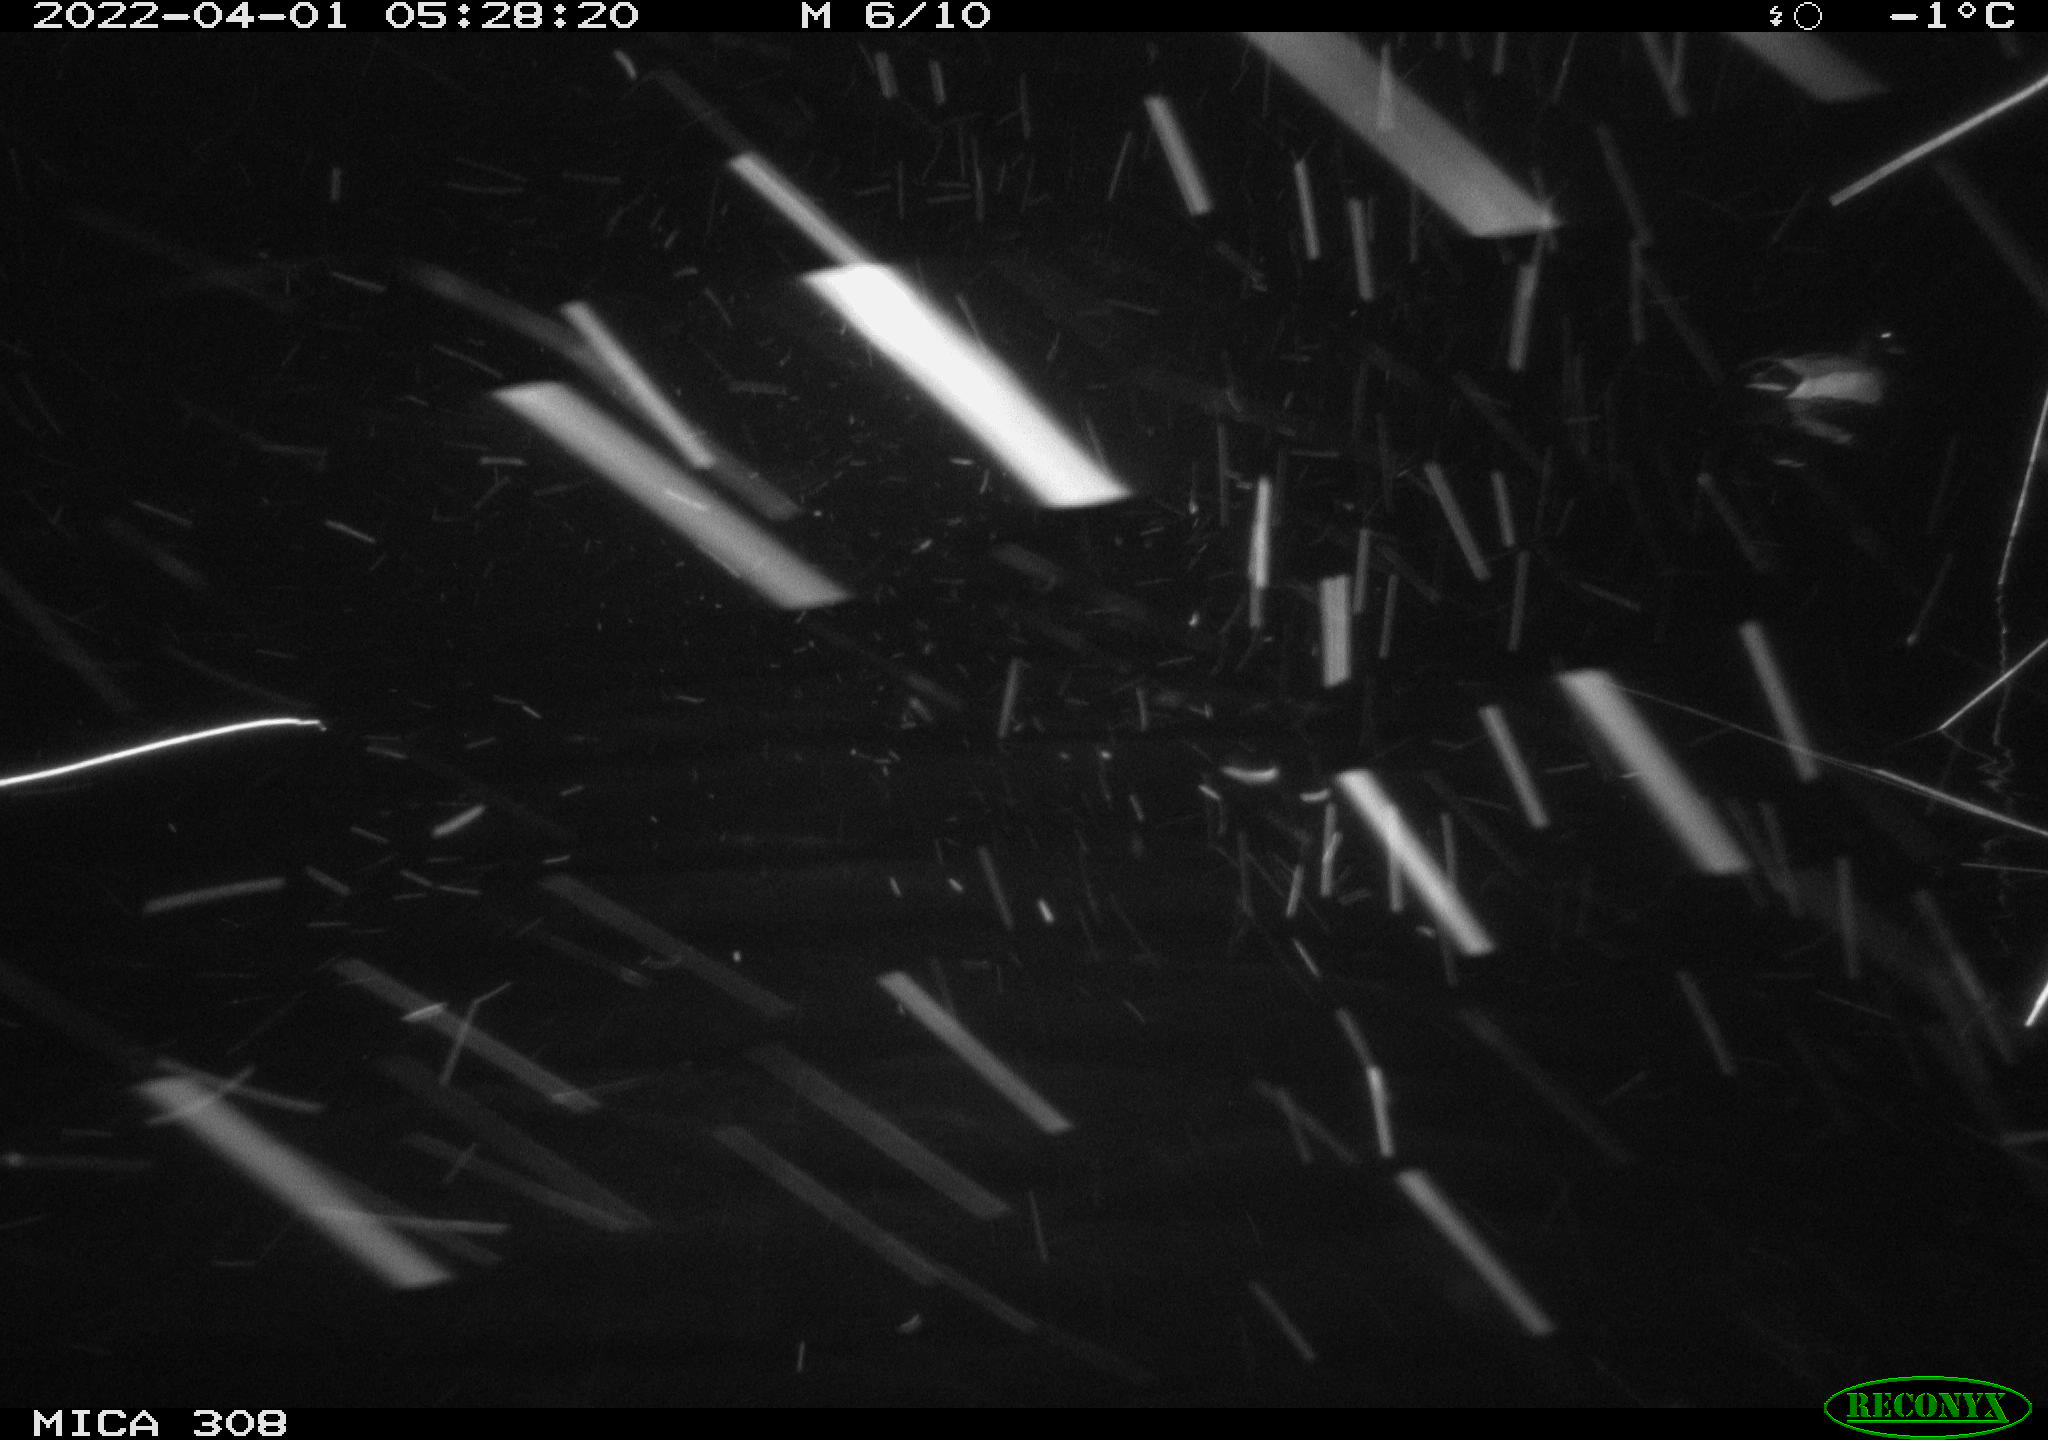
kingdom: Animalia
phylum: Chordata
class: Aves
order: Anseriformes
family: Anatidae
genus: Anas
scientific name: Anas platyrhynchos
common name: Mallard
